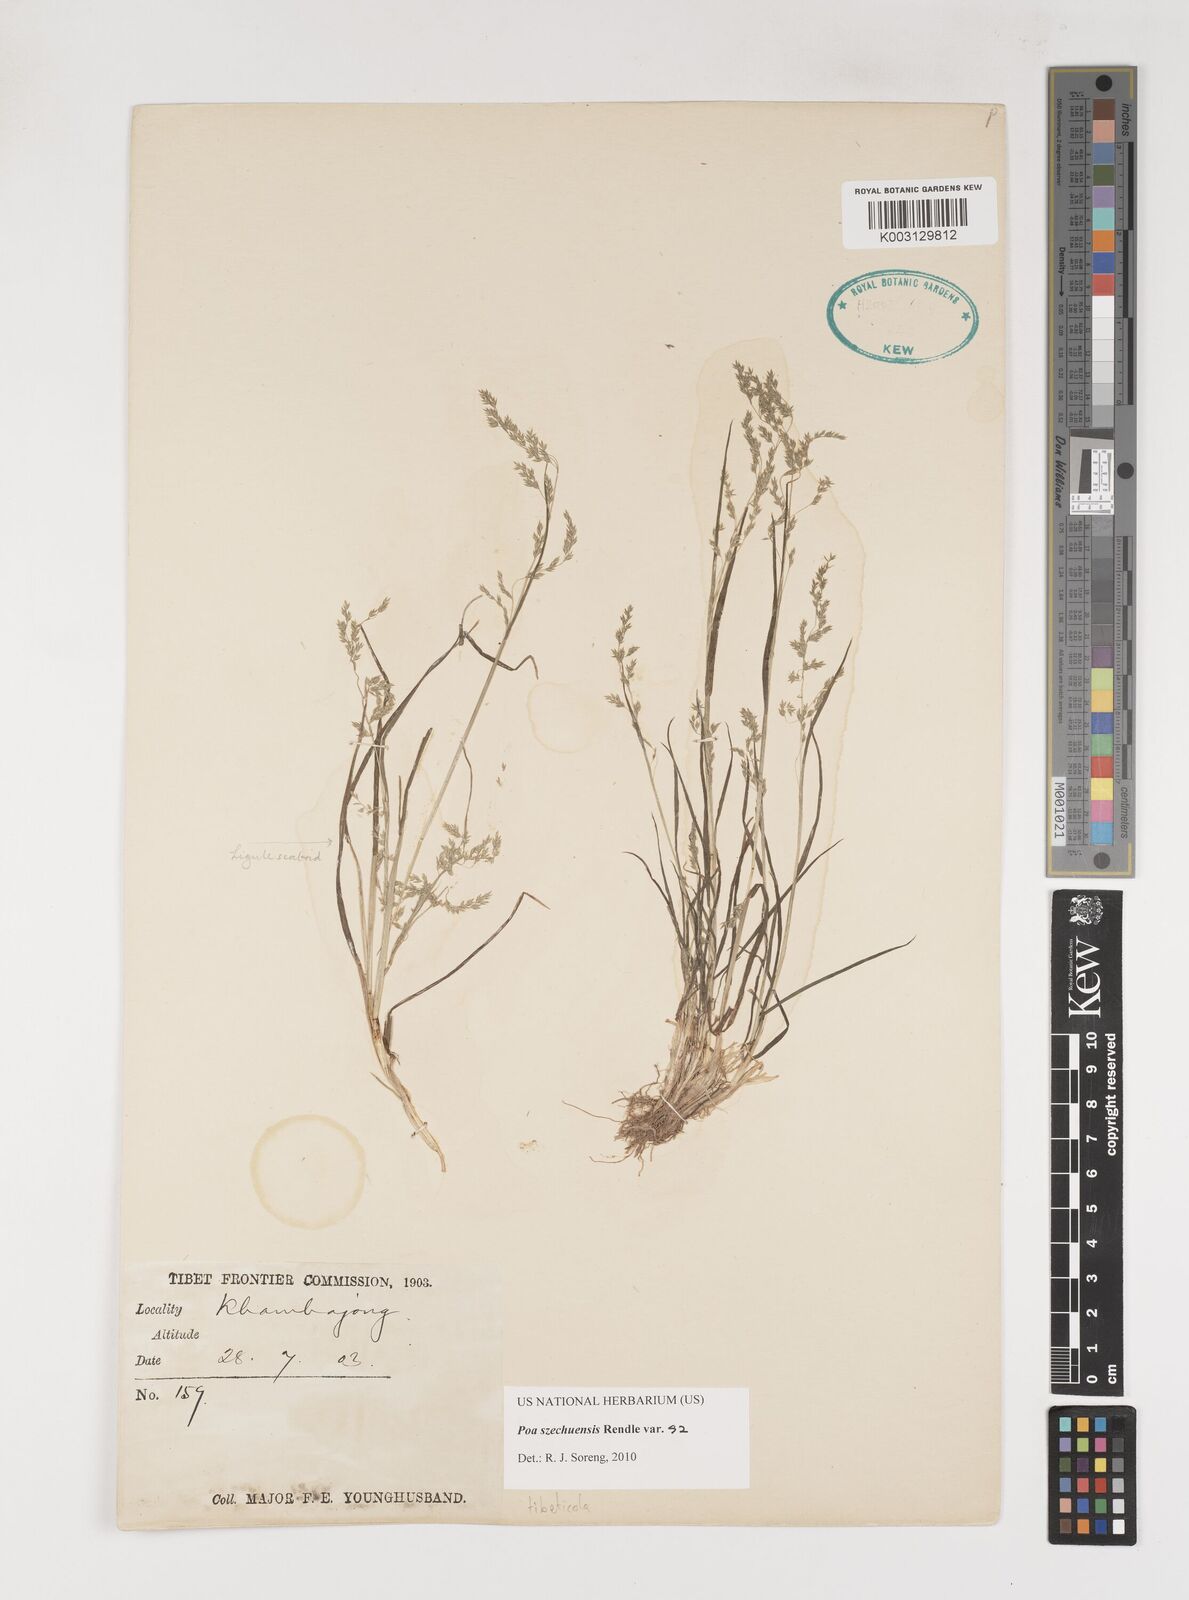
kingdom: Plantae
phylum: Tracheophyta
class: Liliopsida
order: Poales
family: Poaceae
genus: Poa
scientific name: Poa szechuensis
